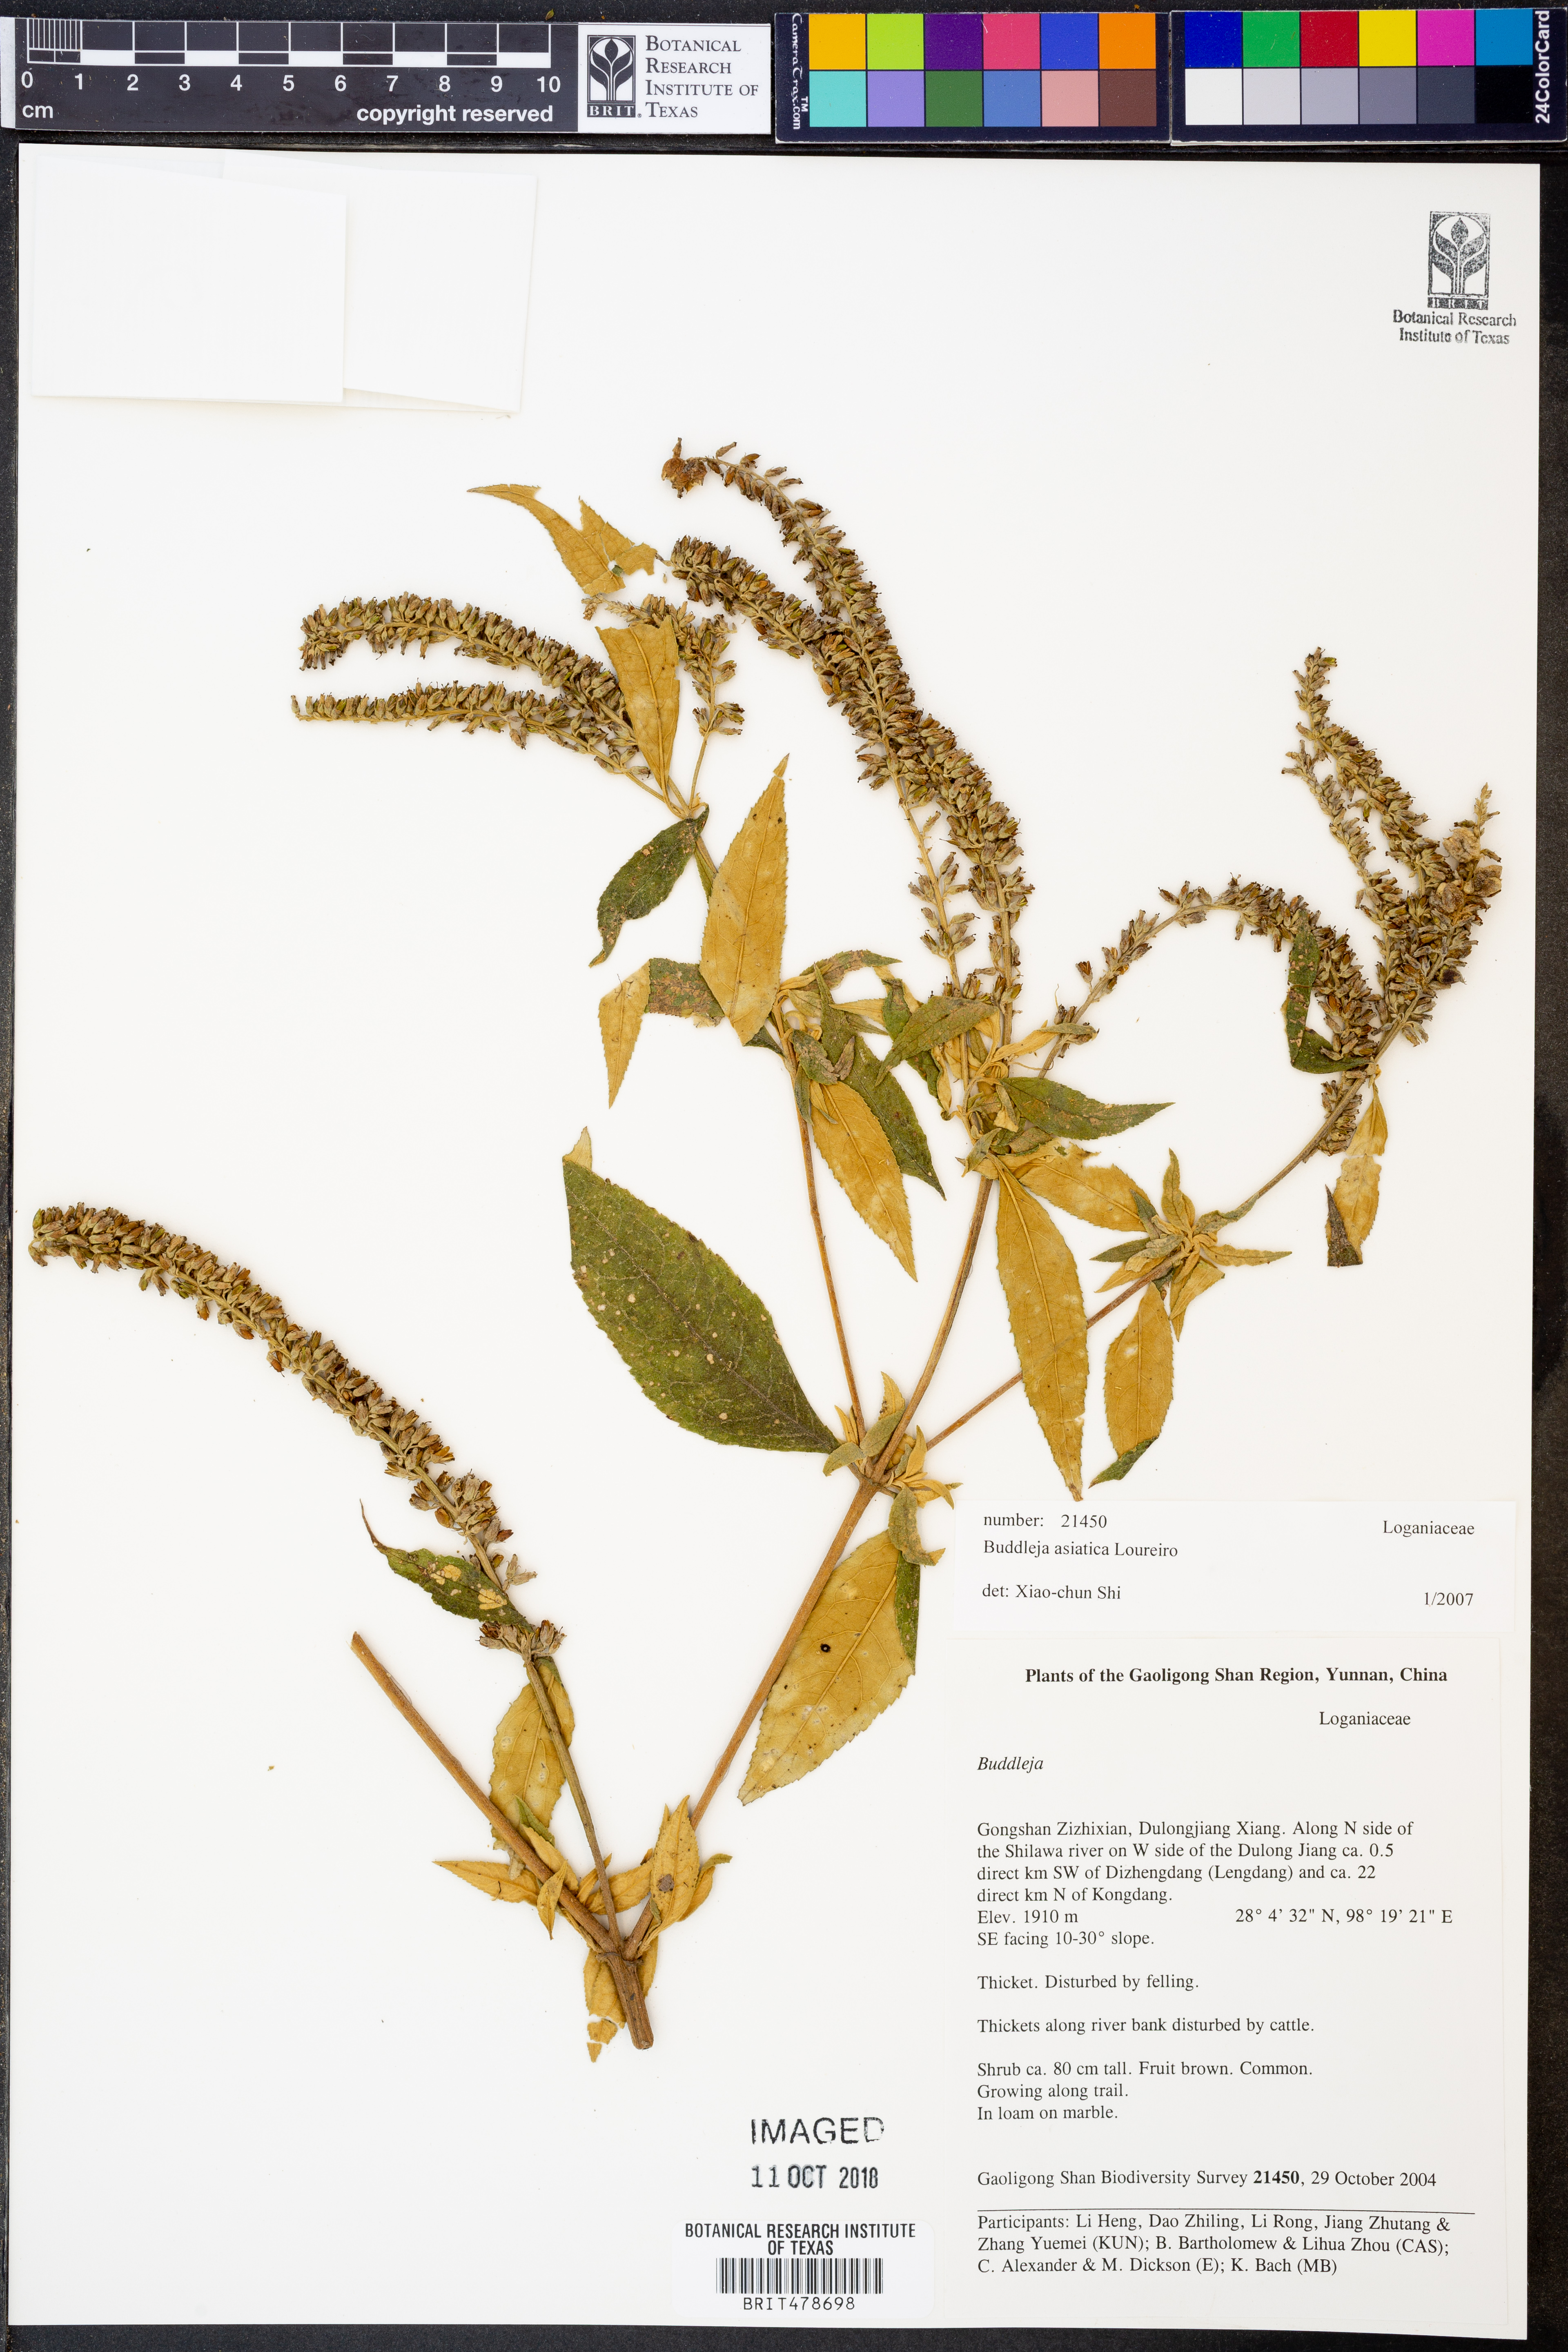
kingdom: Plantae
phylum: Tracheophyta
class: Magnoliopsida
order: Lamiales
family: Scrophulariaceae
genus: Buddleja
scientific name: Buddleja asiatica
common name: Dog tail
